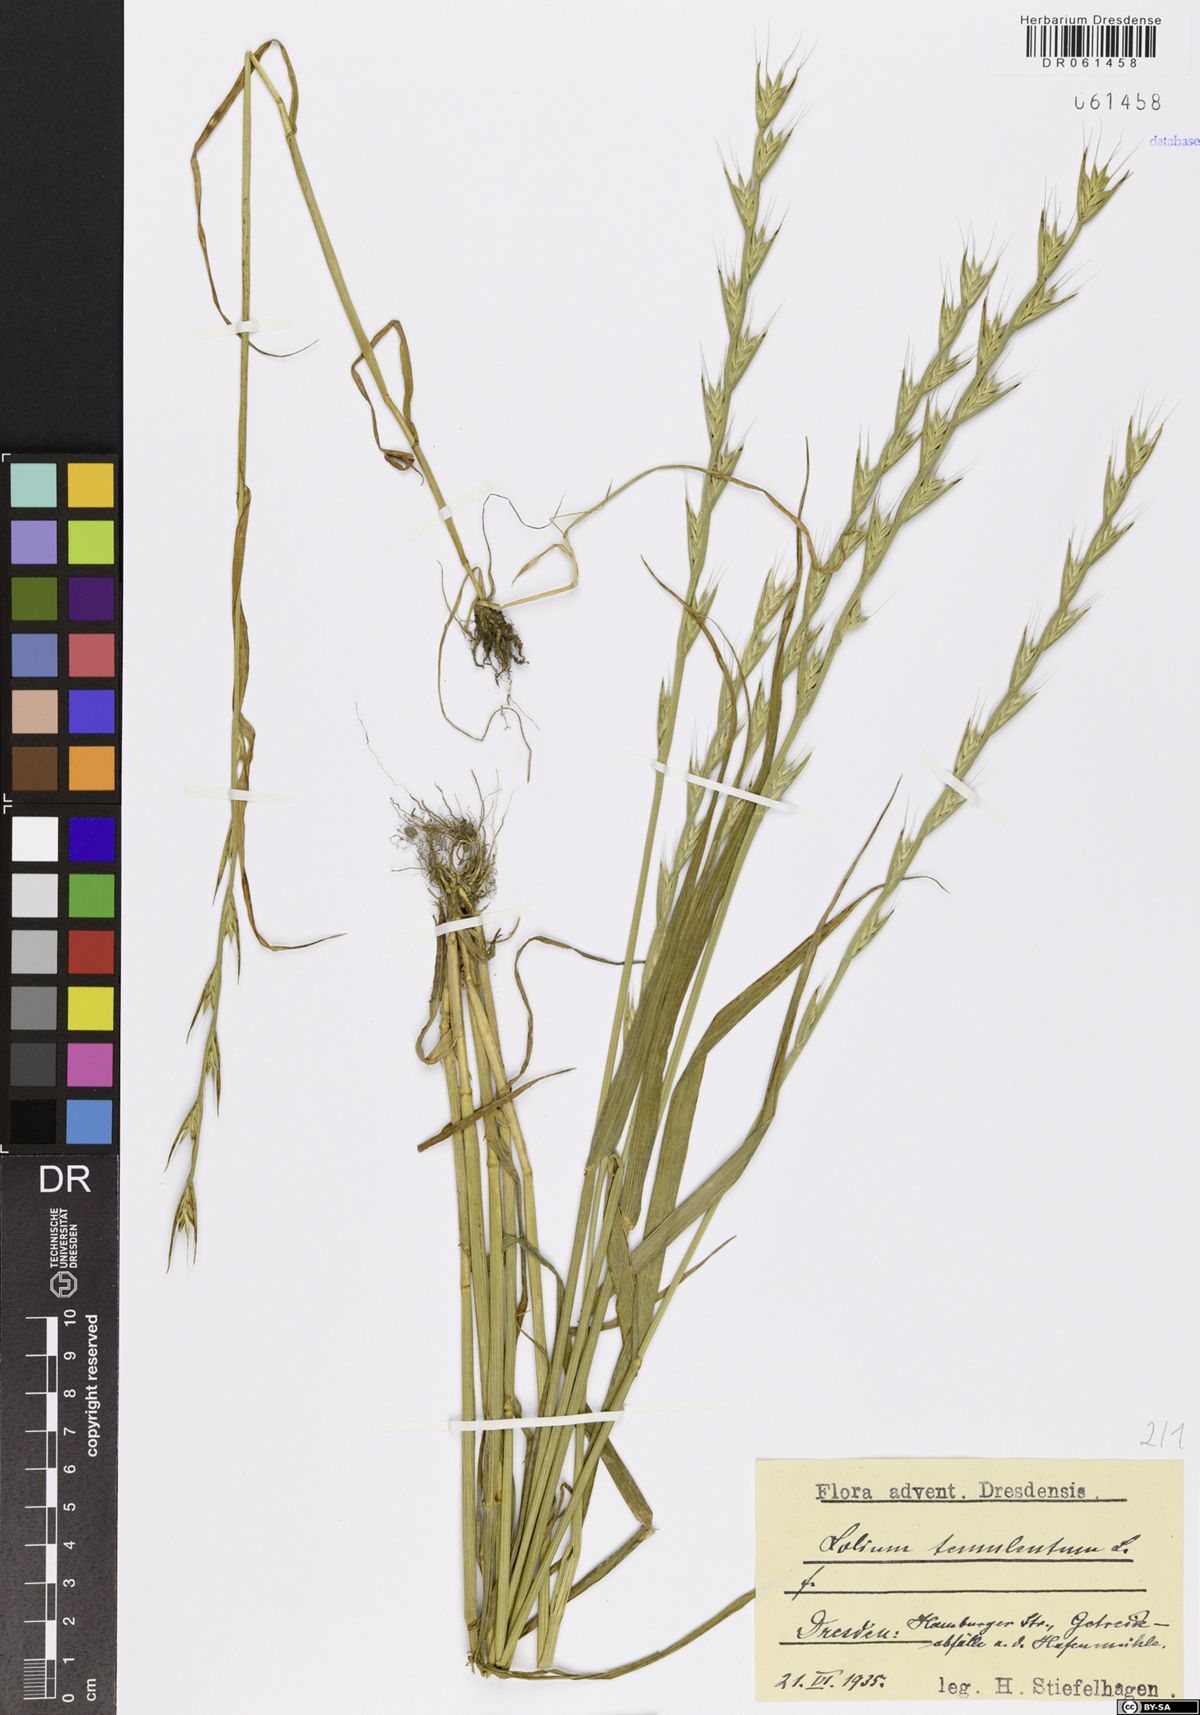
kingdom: Plantae
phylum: Tracheophyta
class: Liliopsida
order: Poales
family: Poaceae
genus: Lolium
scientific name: Lolium temulentum
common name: Darnel
